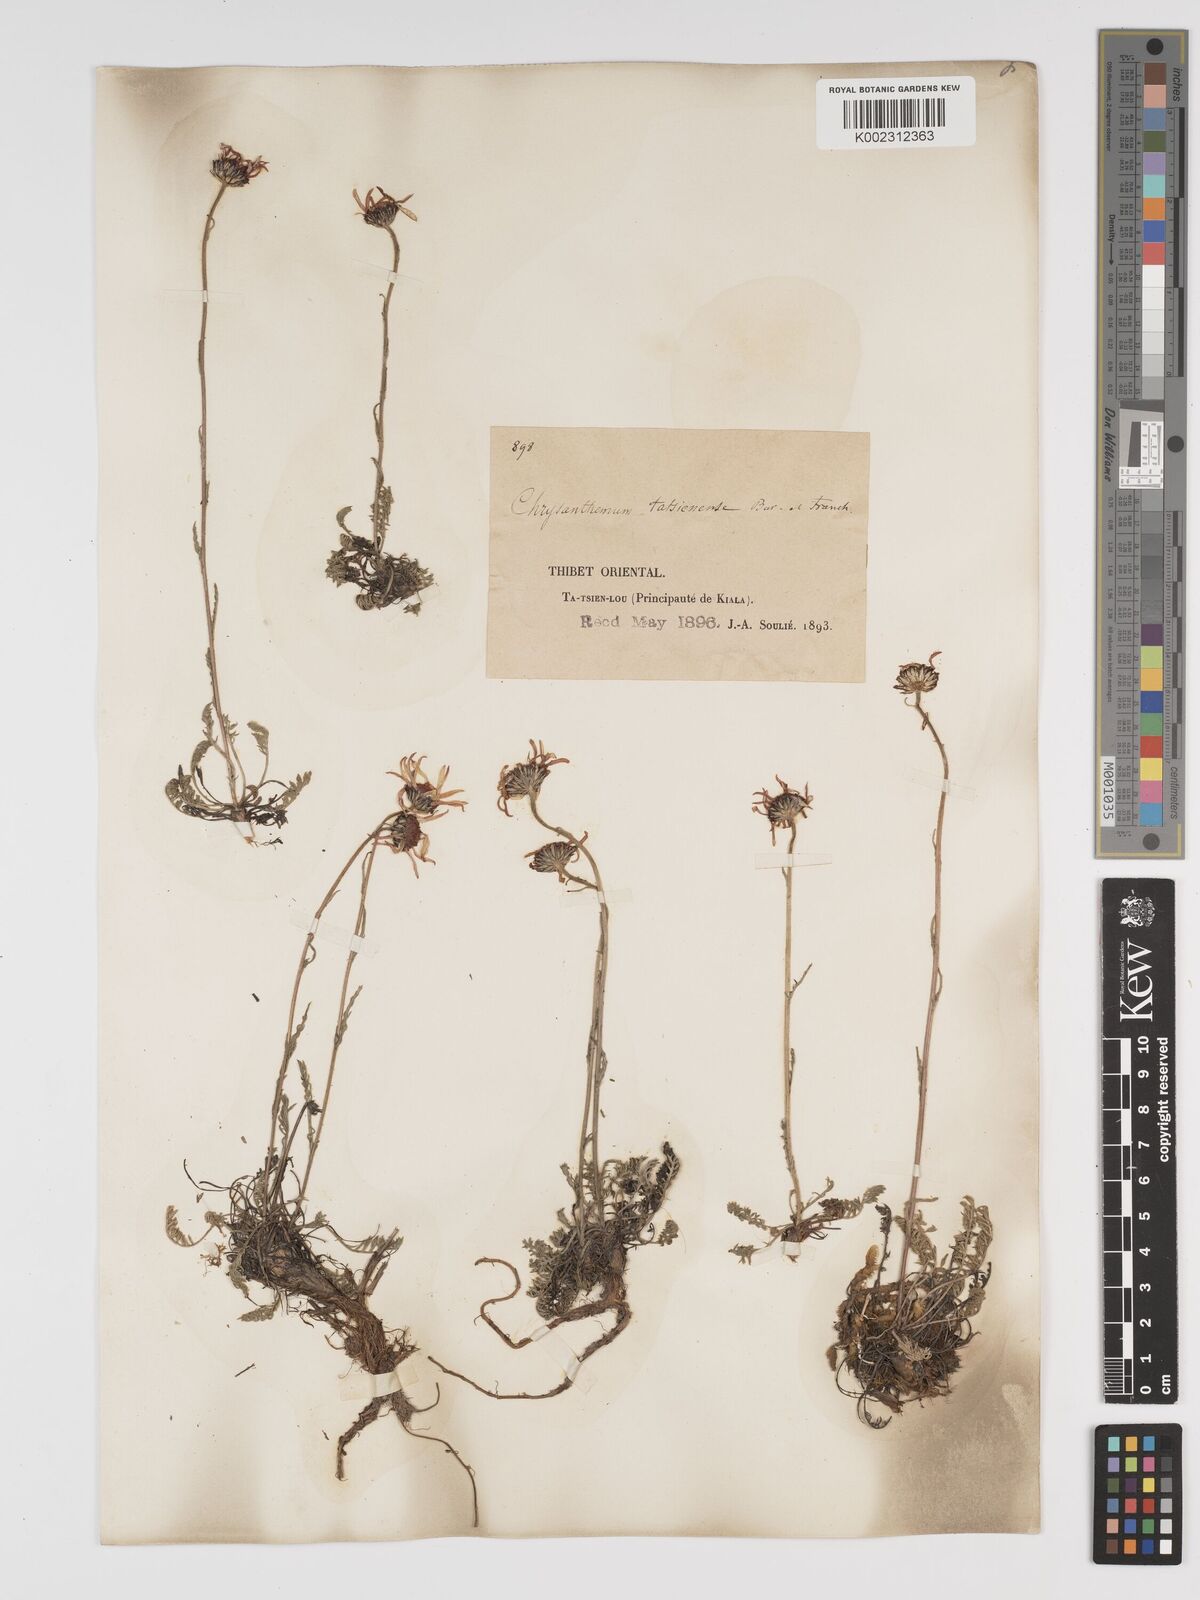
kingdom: Plantae
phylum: Tracheophyta
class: Magnoliopsida
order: Asterales
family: Asteraceae
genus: Tanacetum
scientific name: Tanacetum tatsienense
